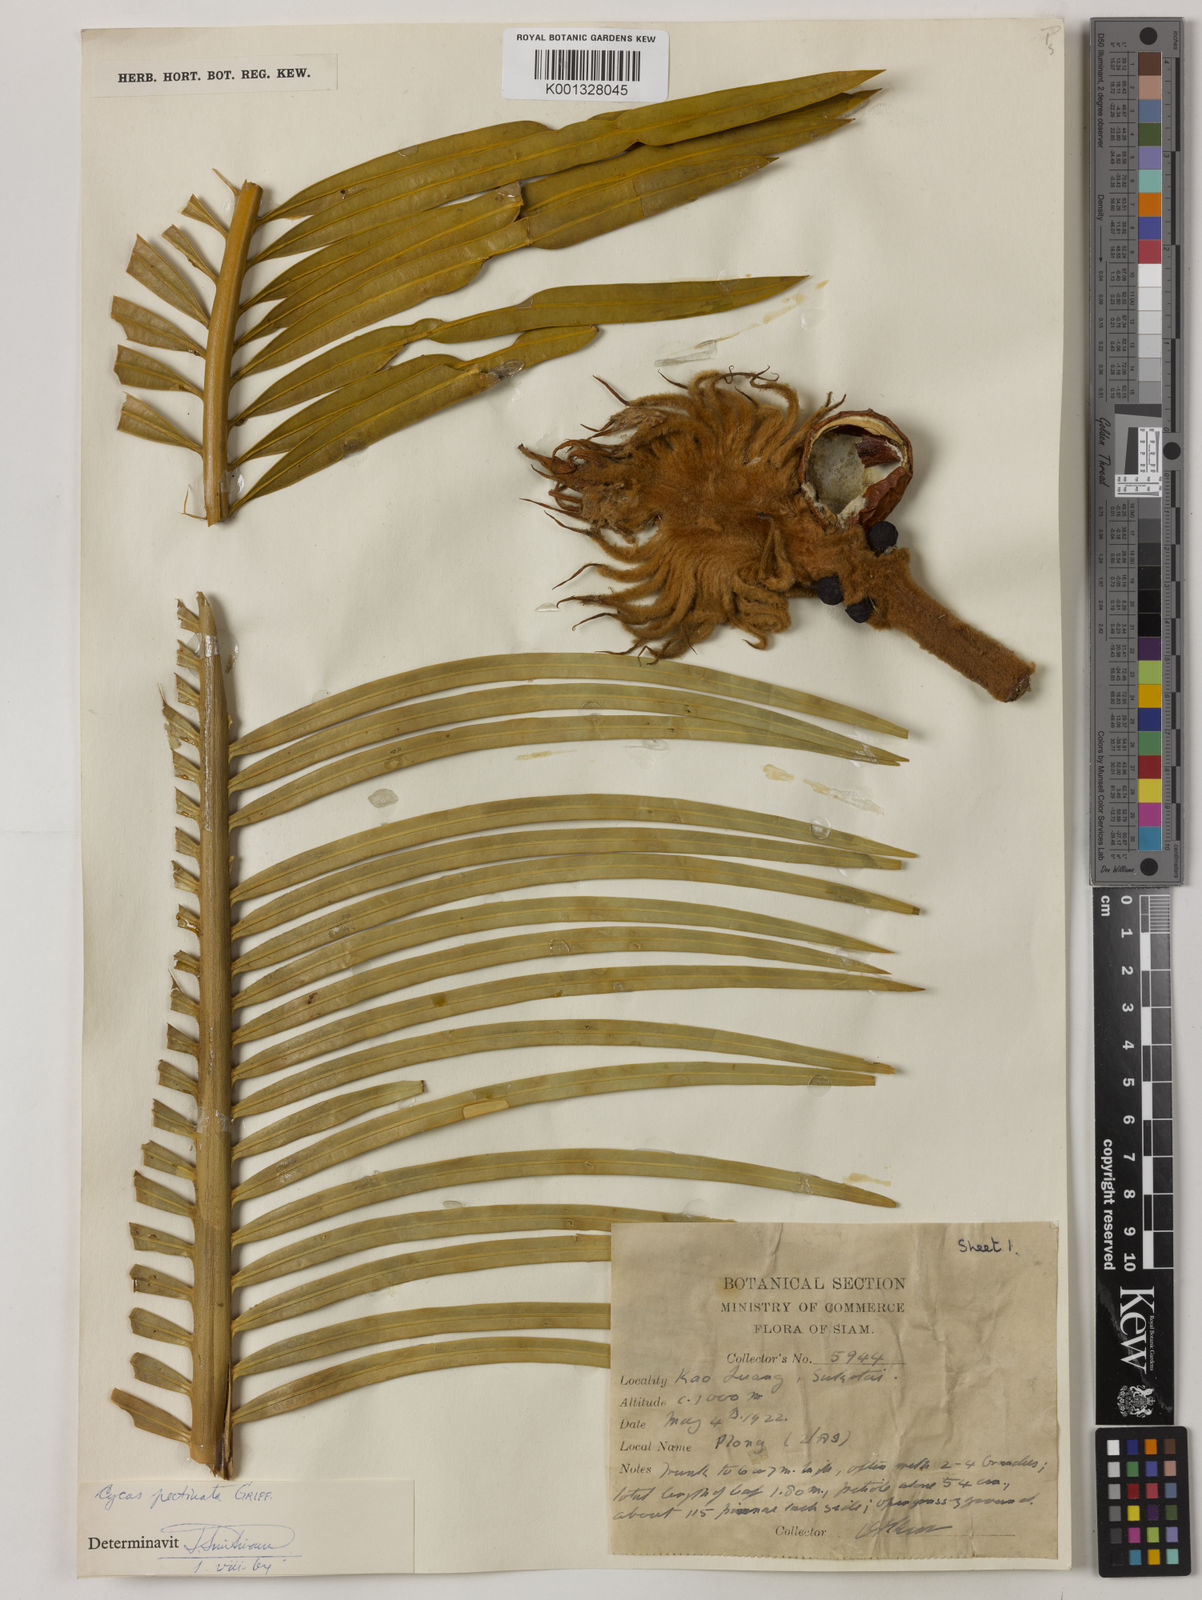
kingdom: Plantae
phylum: Tracheophyta
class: Cycadopsida
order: Cycadales
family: Cycadaceae
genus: Cycas
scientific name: Cycas
